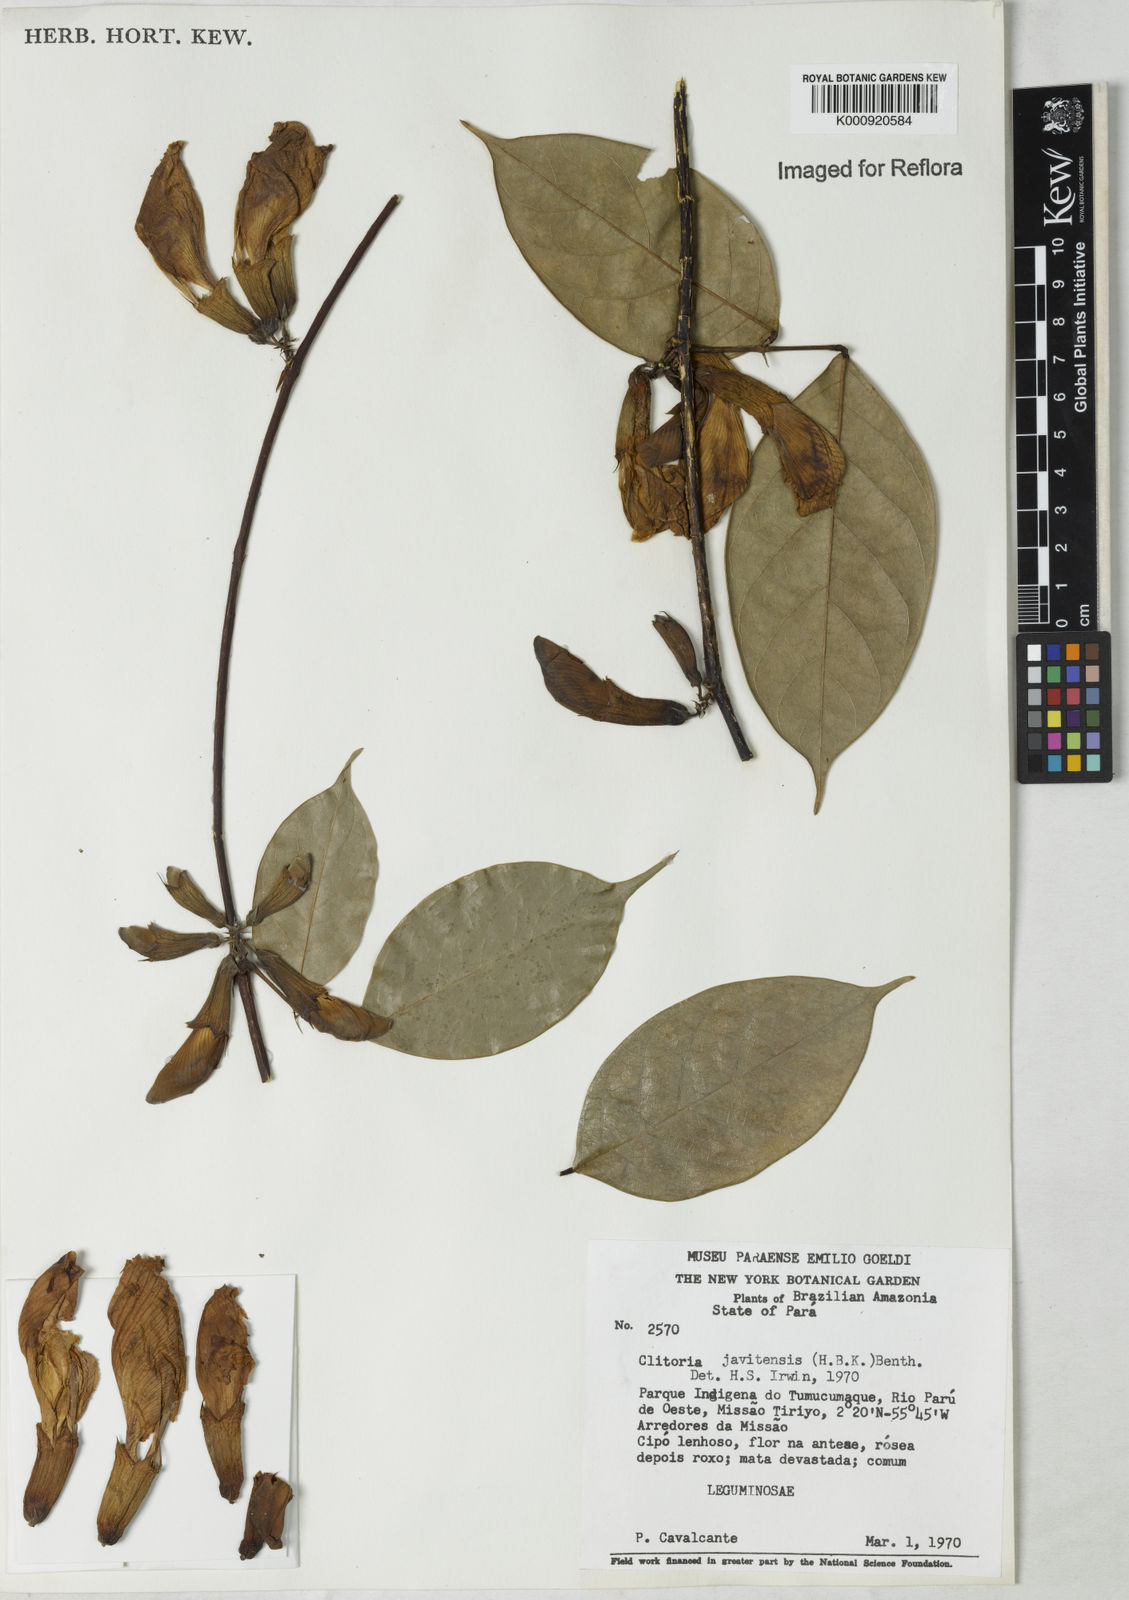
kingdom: Plantae
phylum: Tracheophyta
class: Magnoliopsida
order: Fabales
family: Fabaceae
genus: Clitoria
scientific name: Clitoria javitensis
